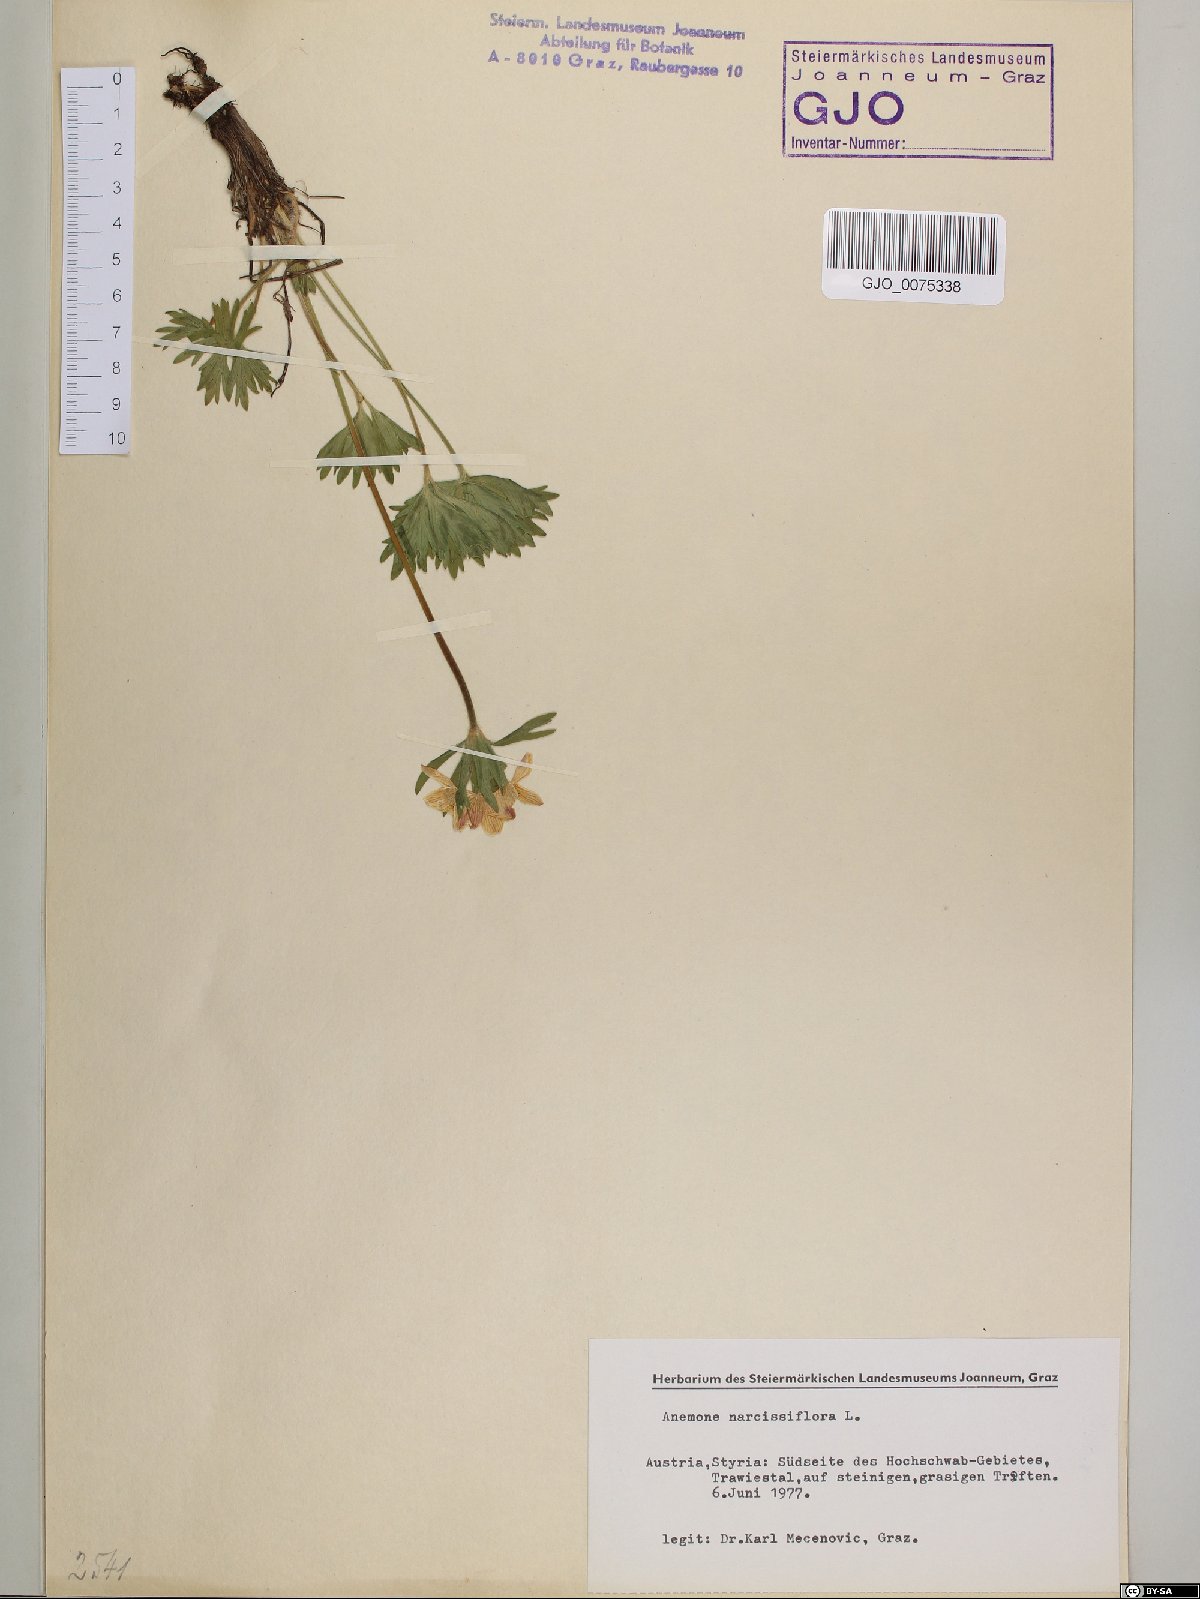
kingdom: Plantae
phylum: Tracheophyta
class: Magnoliopsida
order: Ranunculales
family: Ranunculaceae
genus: Anemonastrum
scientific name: Anemonastrum narcissiflorum
